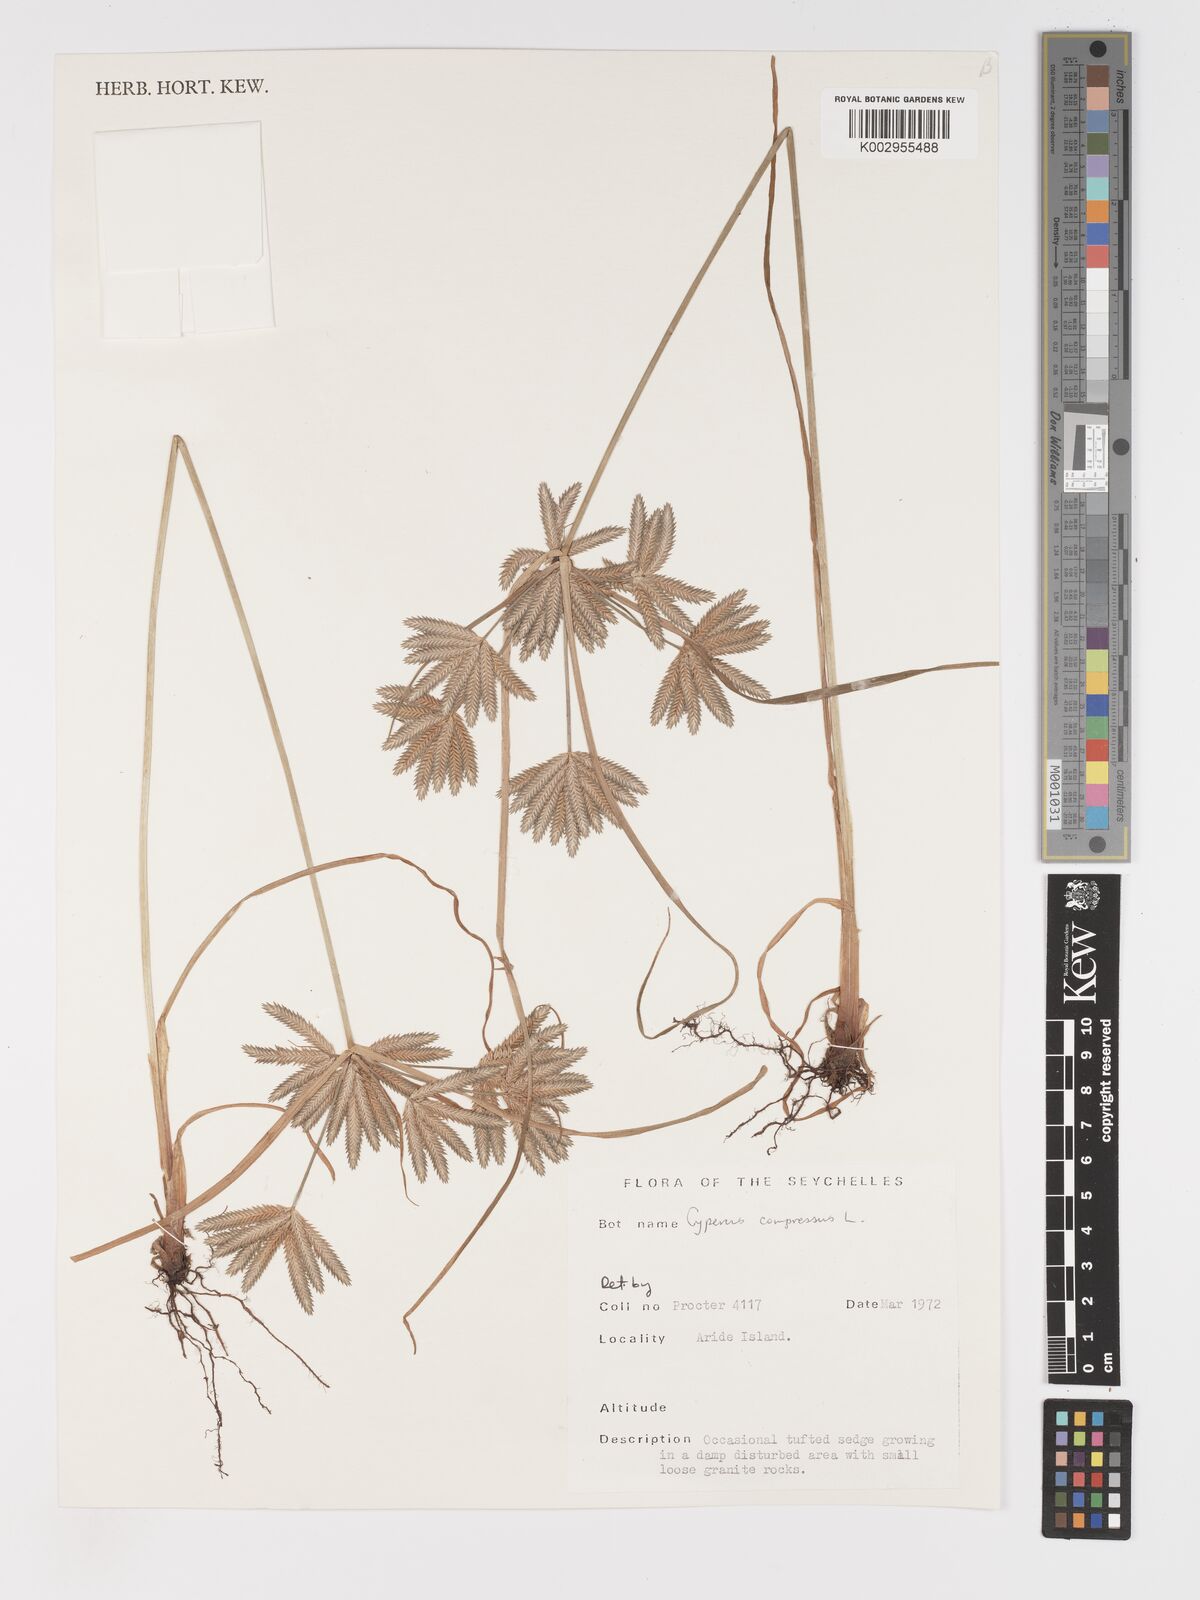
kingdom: Plantae
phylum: Tracheophyta
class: Liliopsida
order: Poales
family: Cyperaceae
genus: Cyperus
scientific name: Cyperus compressus
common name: Poorland flatsedge
